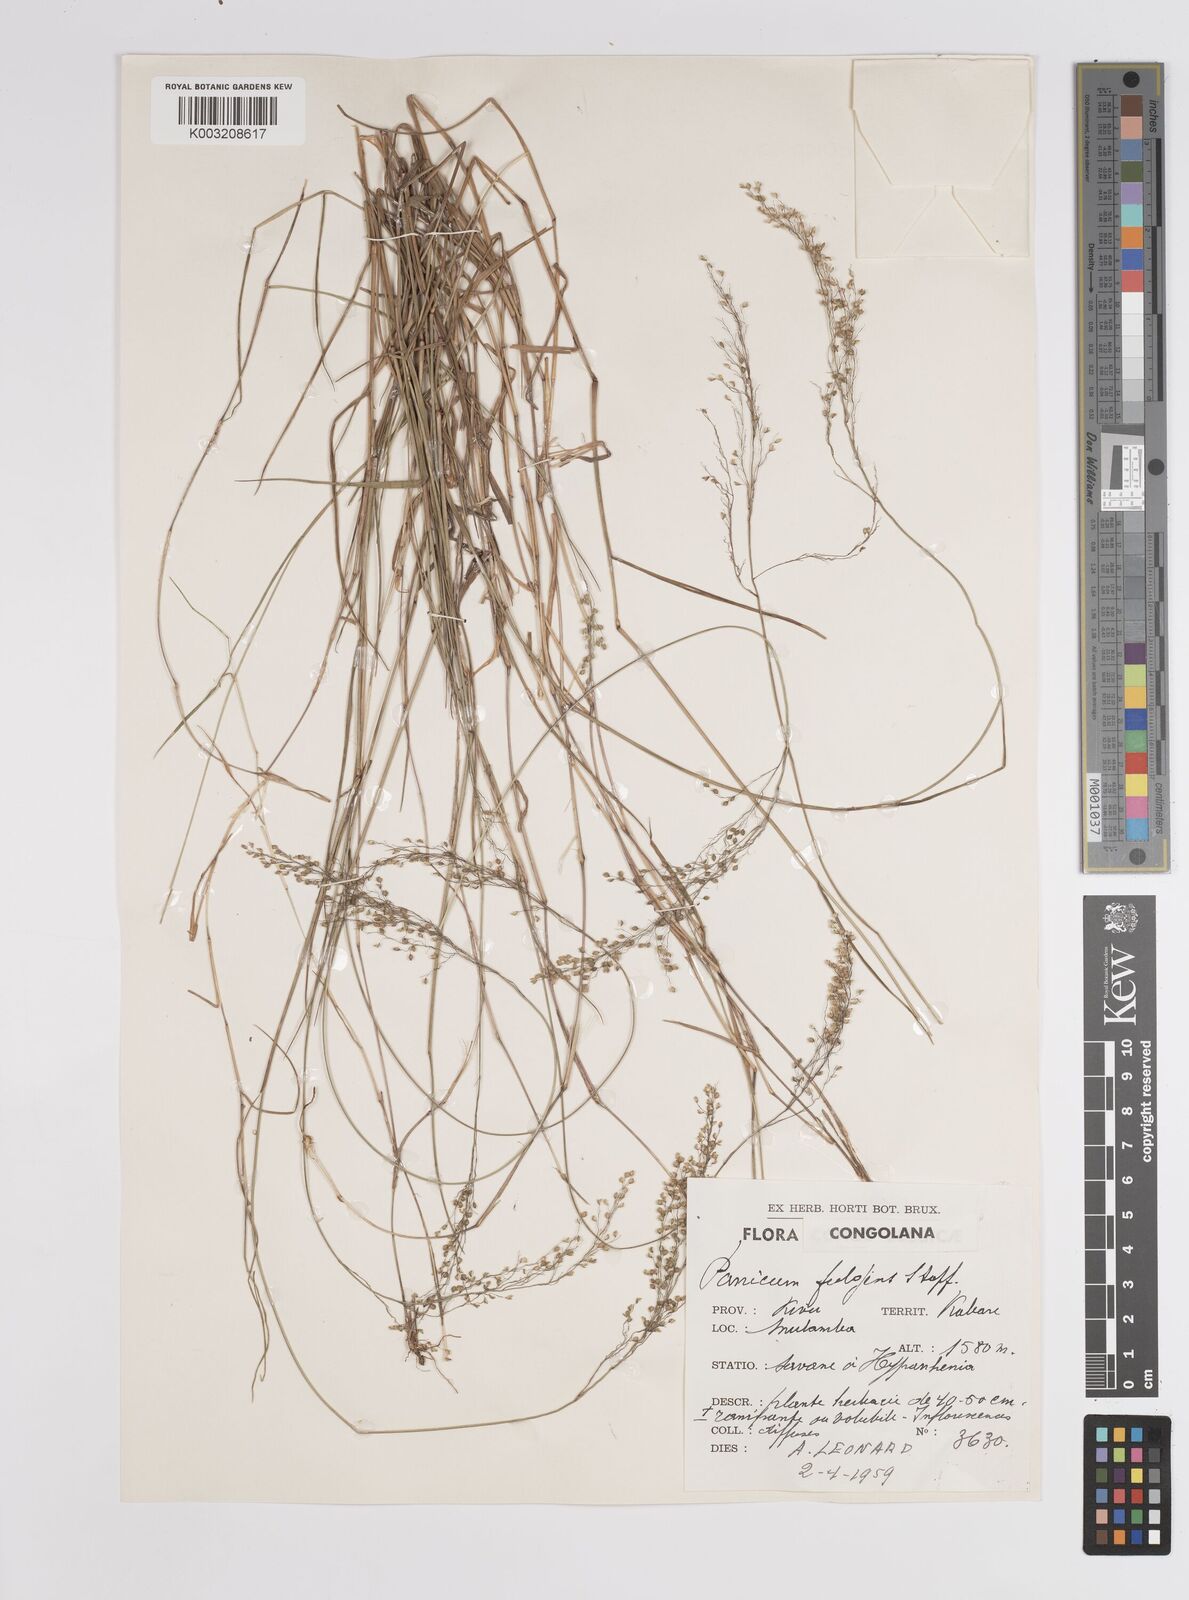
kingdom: Plantae
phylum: Tracheophyta
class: Liliopsida
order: Poales
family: Poaceae
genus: Trichanthecium
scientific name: Trichanthecium nervatum
